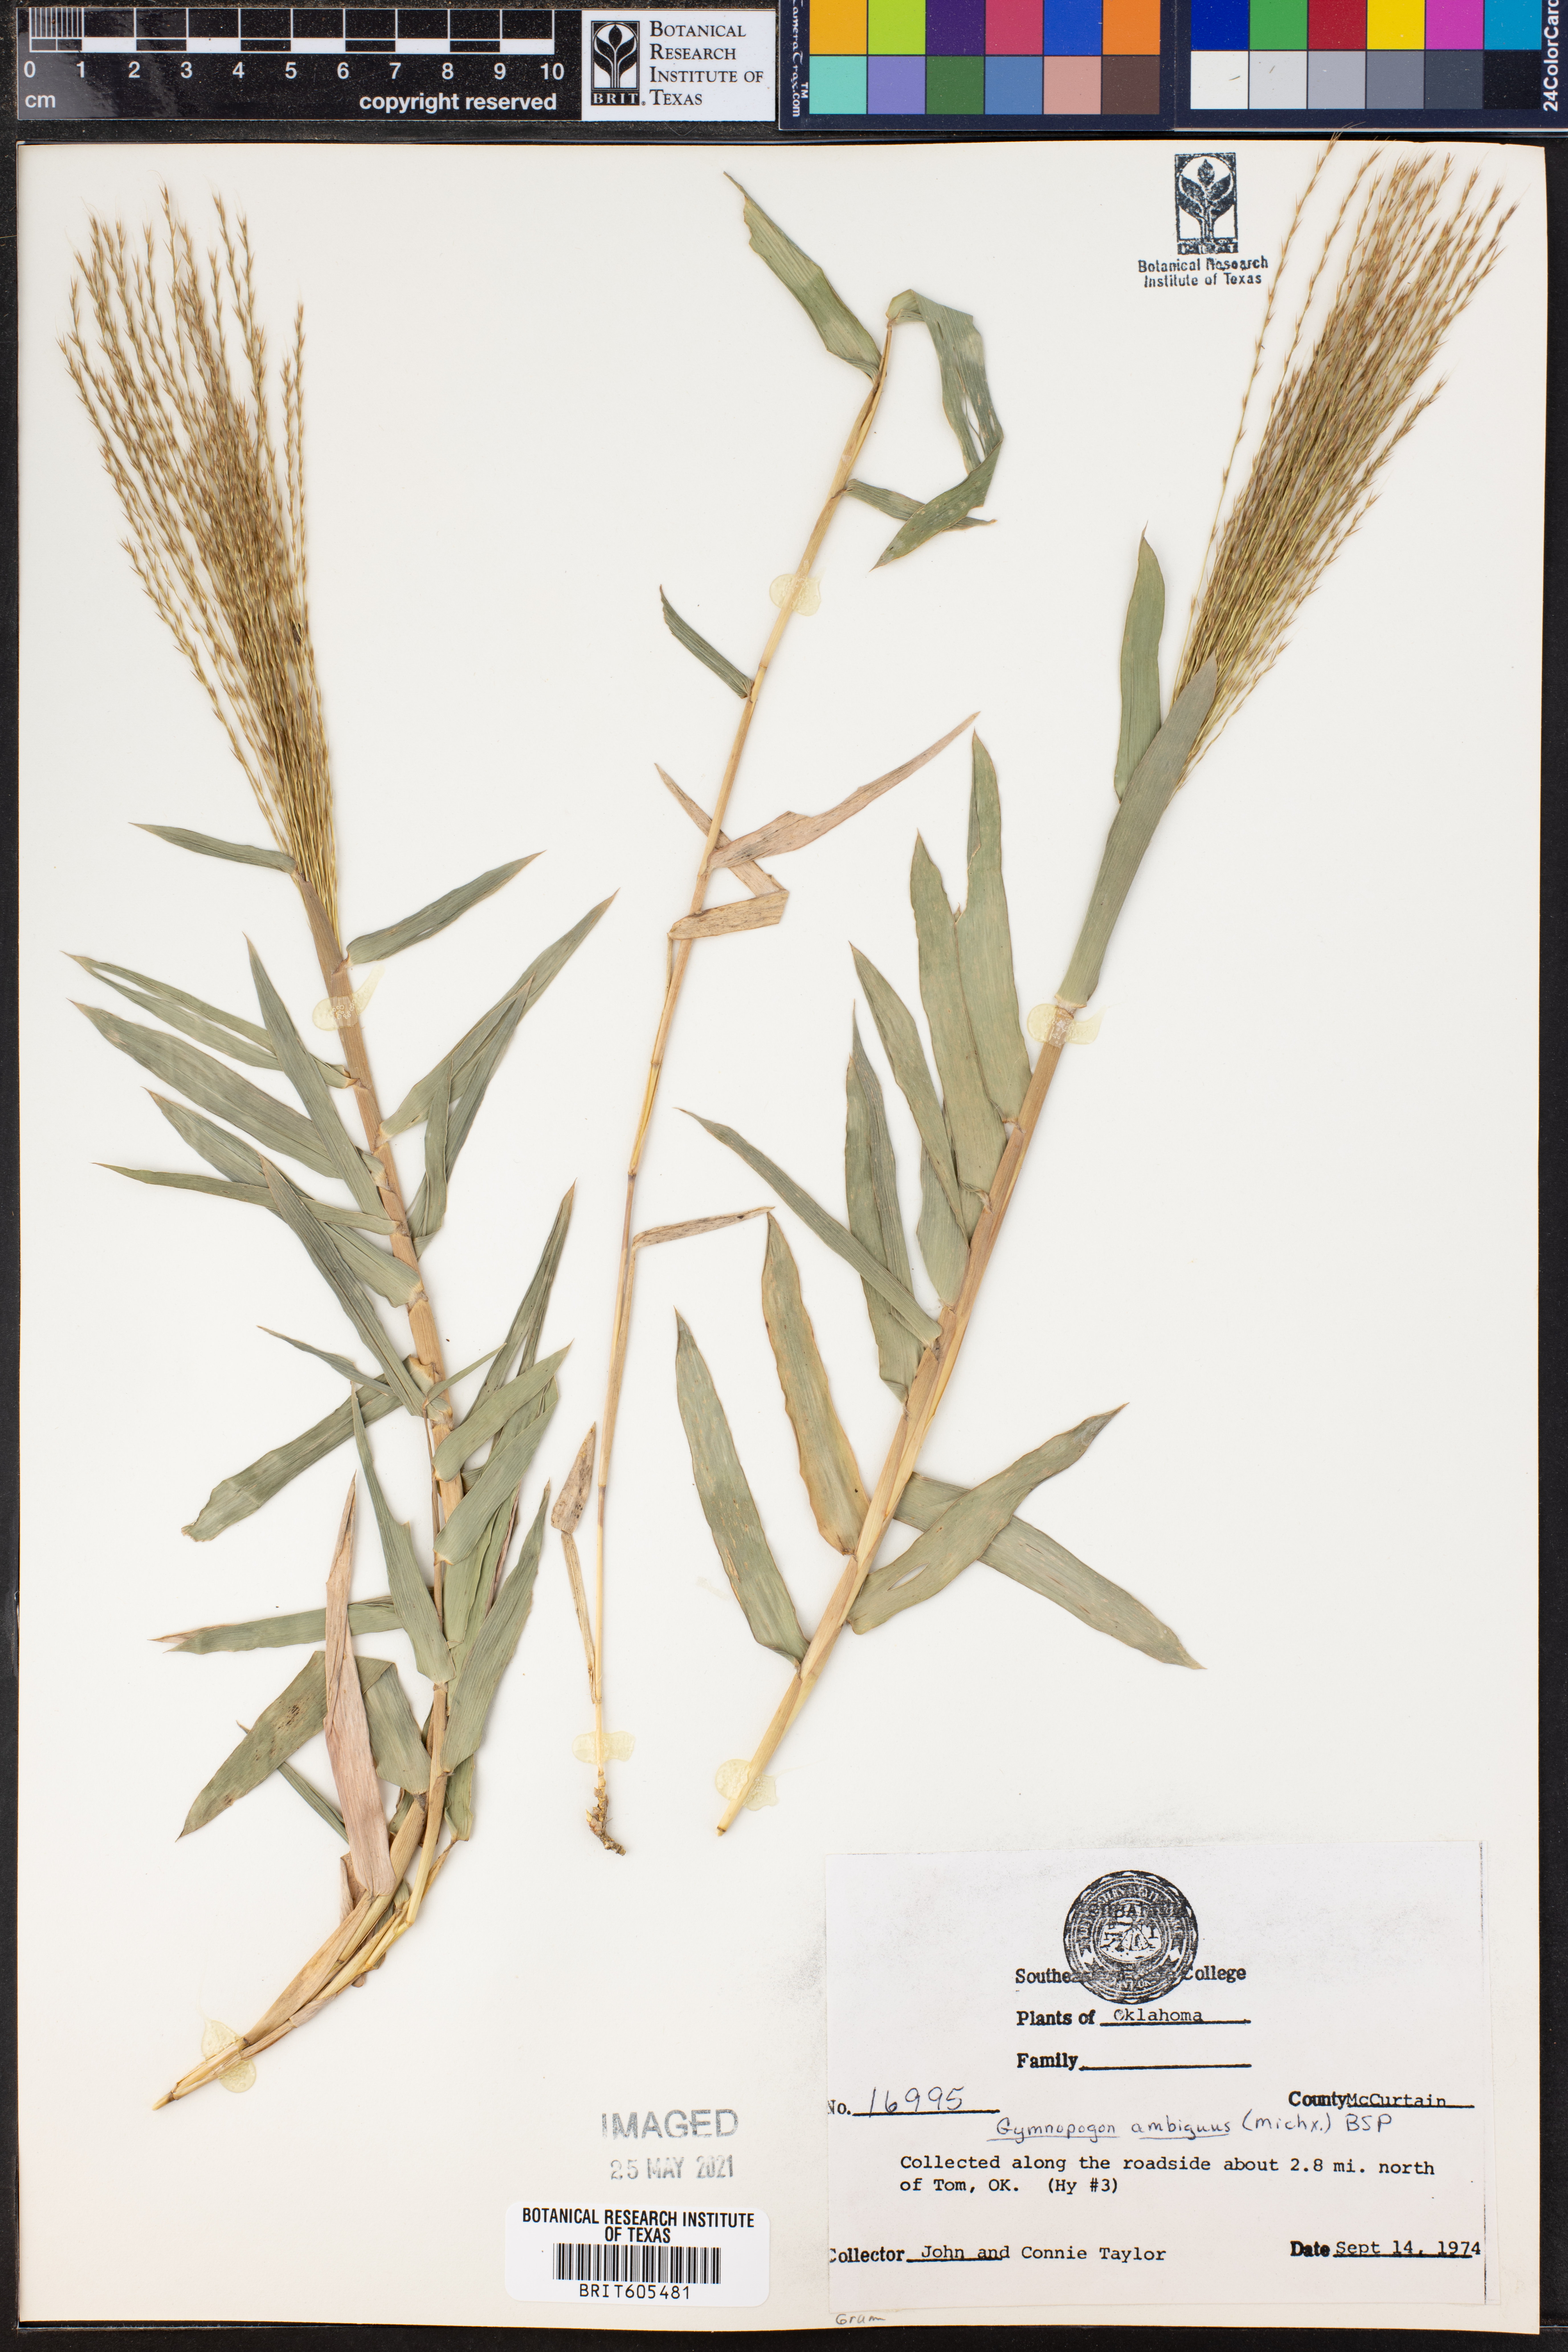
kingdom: Plantae
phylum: Tracheophyta
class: Liliopsida
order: Poales
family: Poaceae
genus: Gymnopogon
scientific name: Gymnopogon ambiguus
